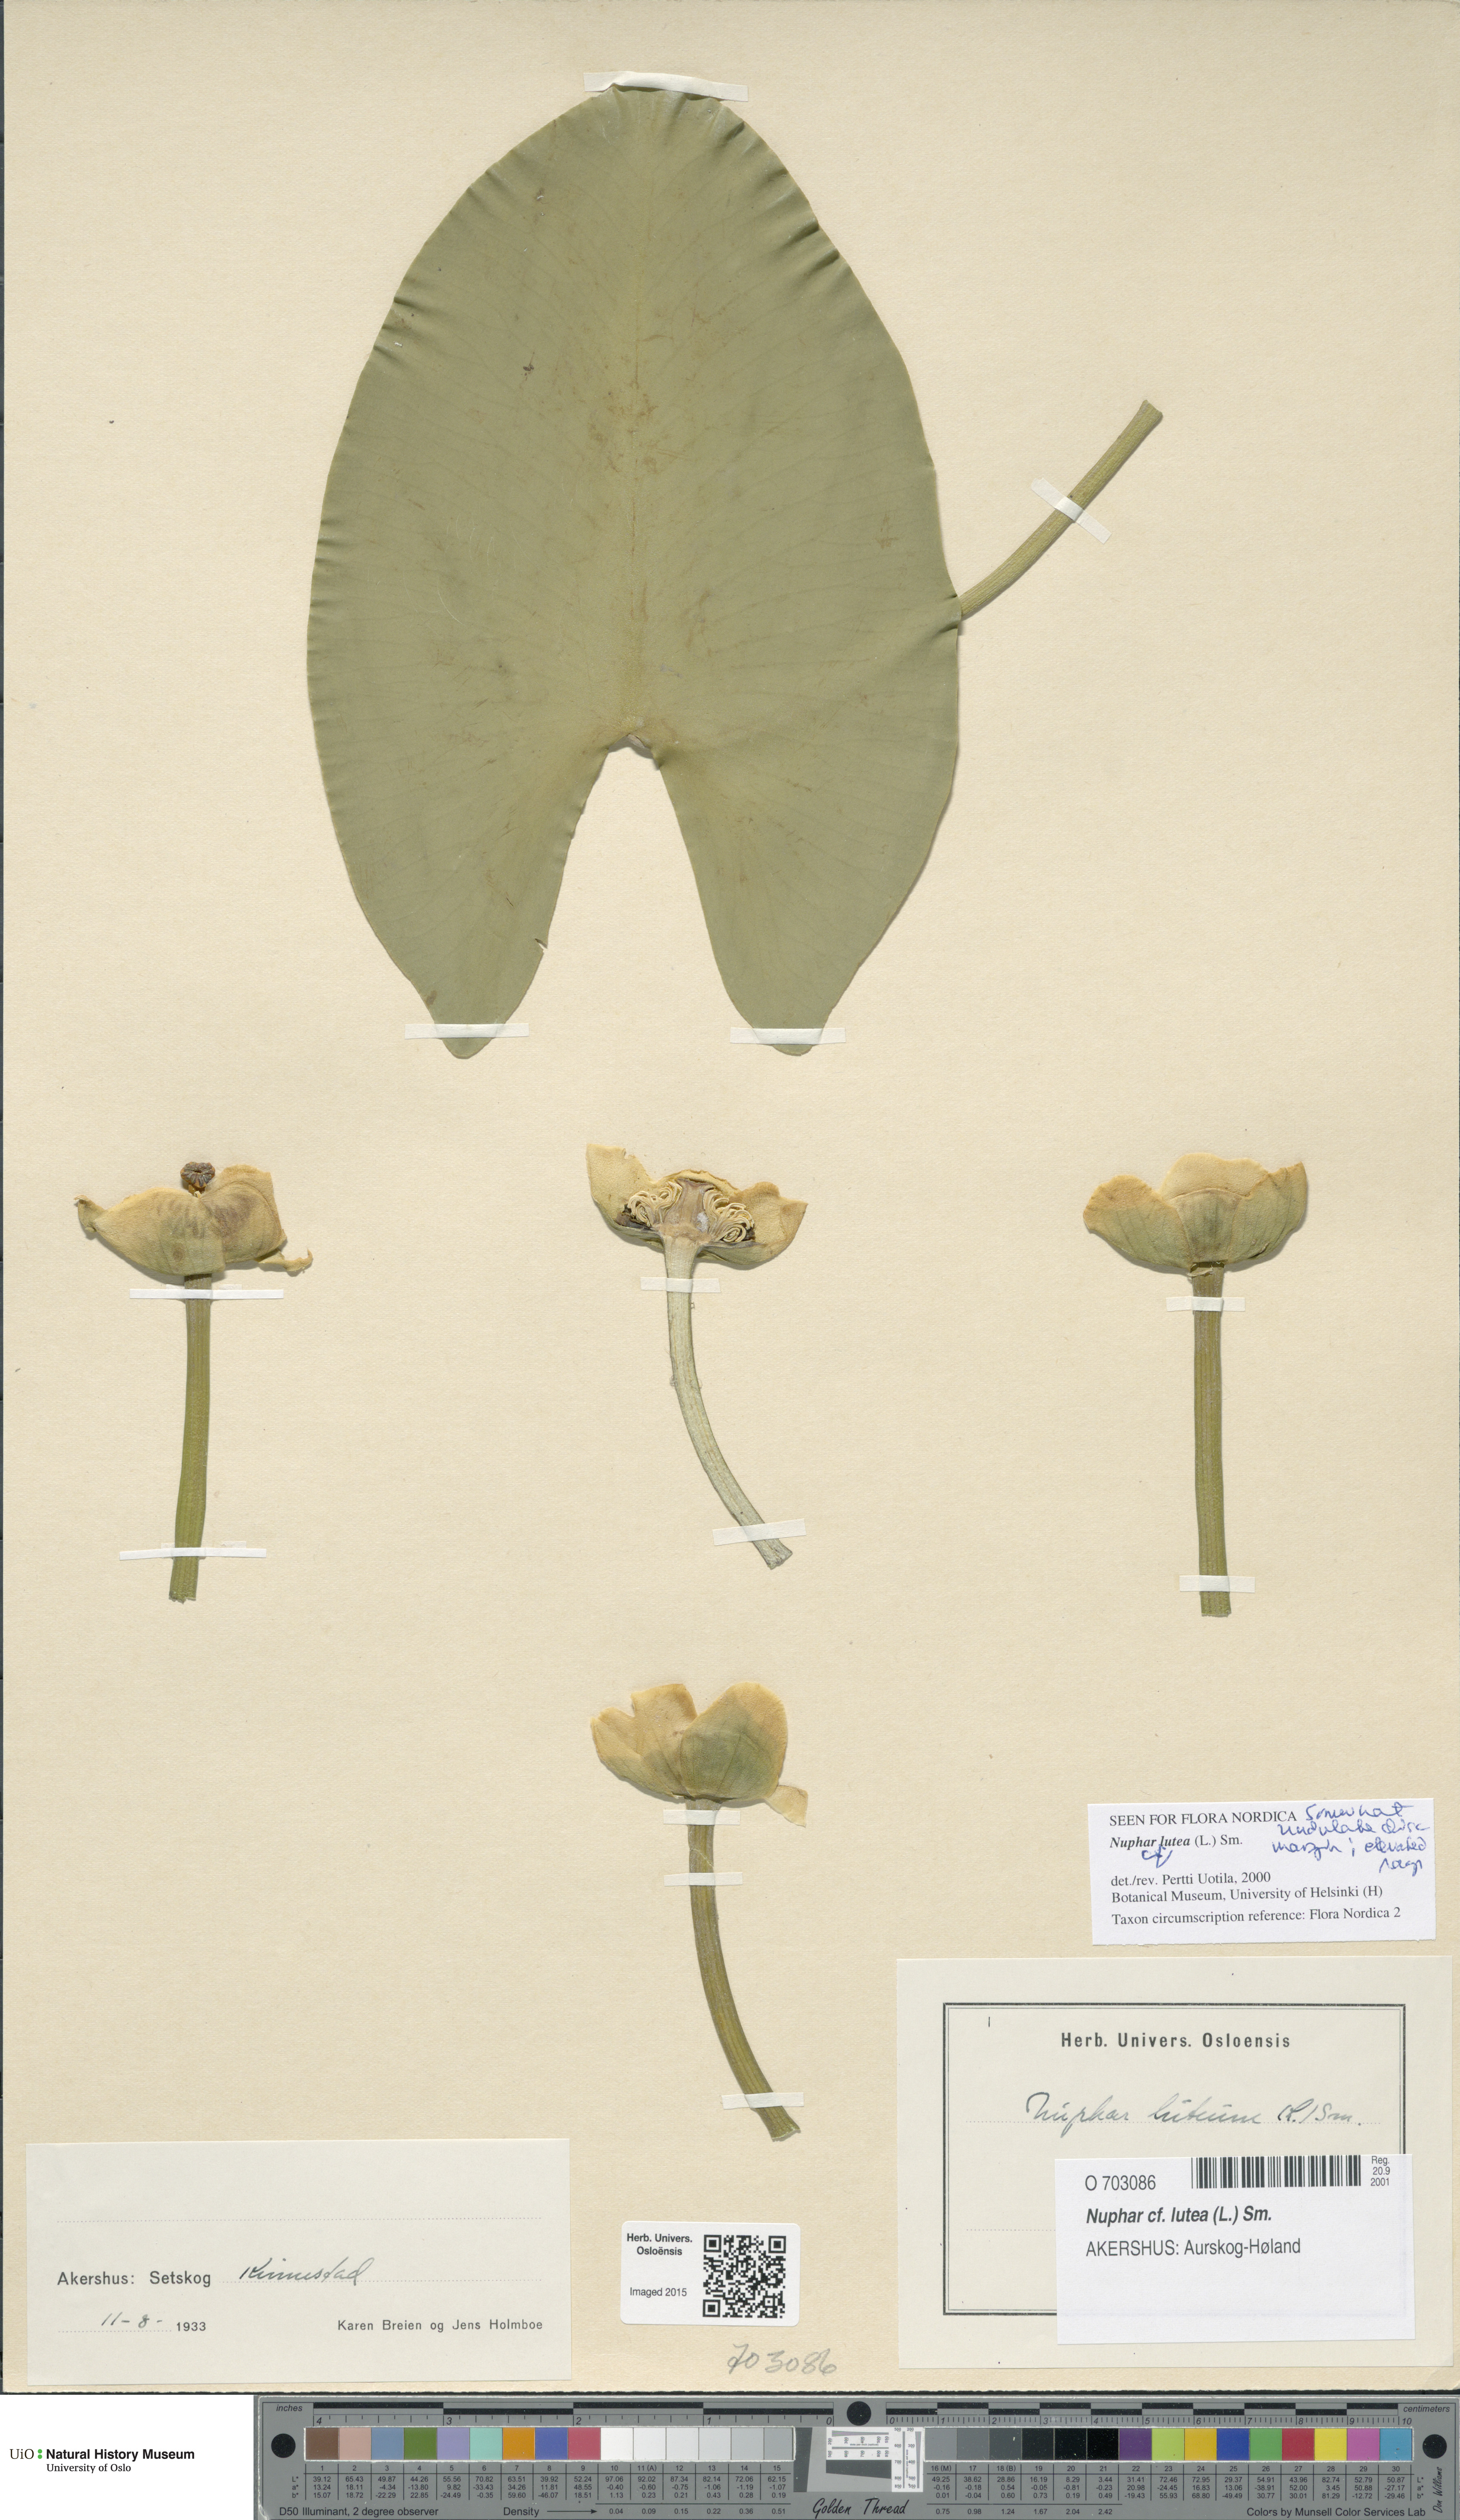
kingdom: Plantae
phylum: Tracheophyta
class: Magnoliopsida
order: Nymphaeales
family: Nymphaeaceae
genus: Nuphar
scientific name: Nuphar lutea
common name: Yellow water-lily
